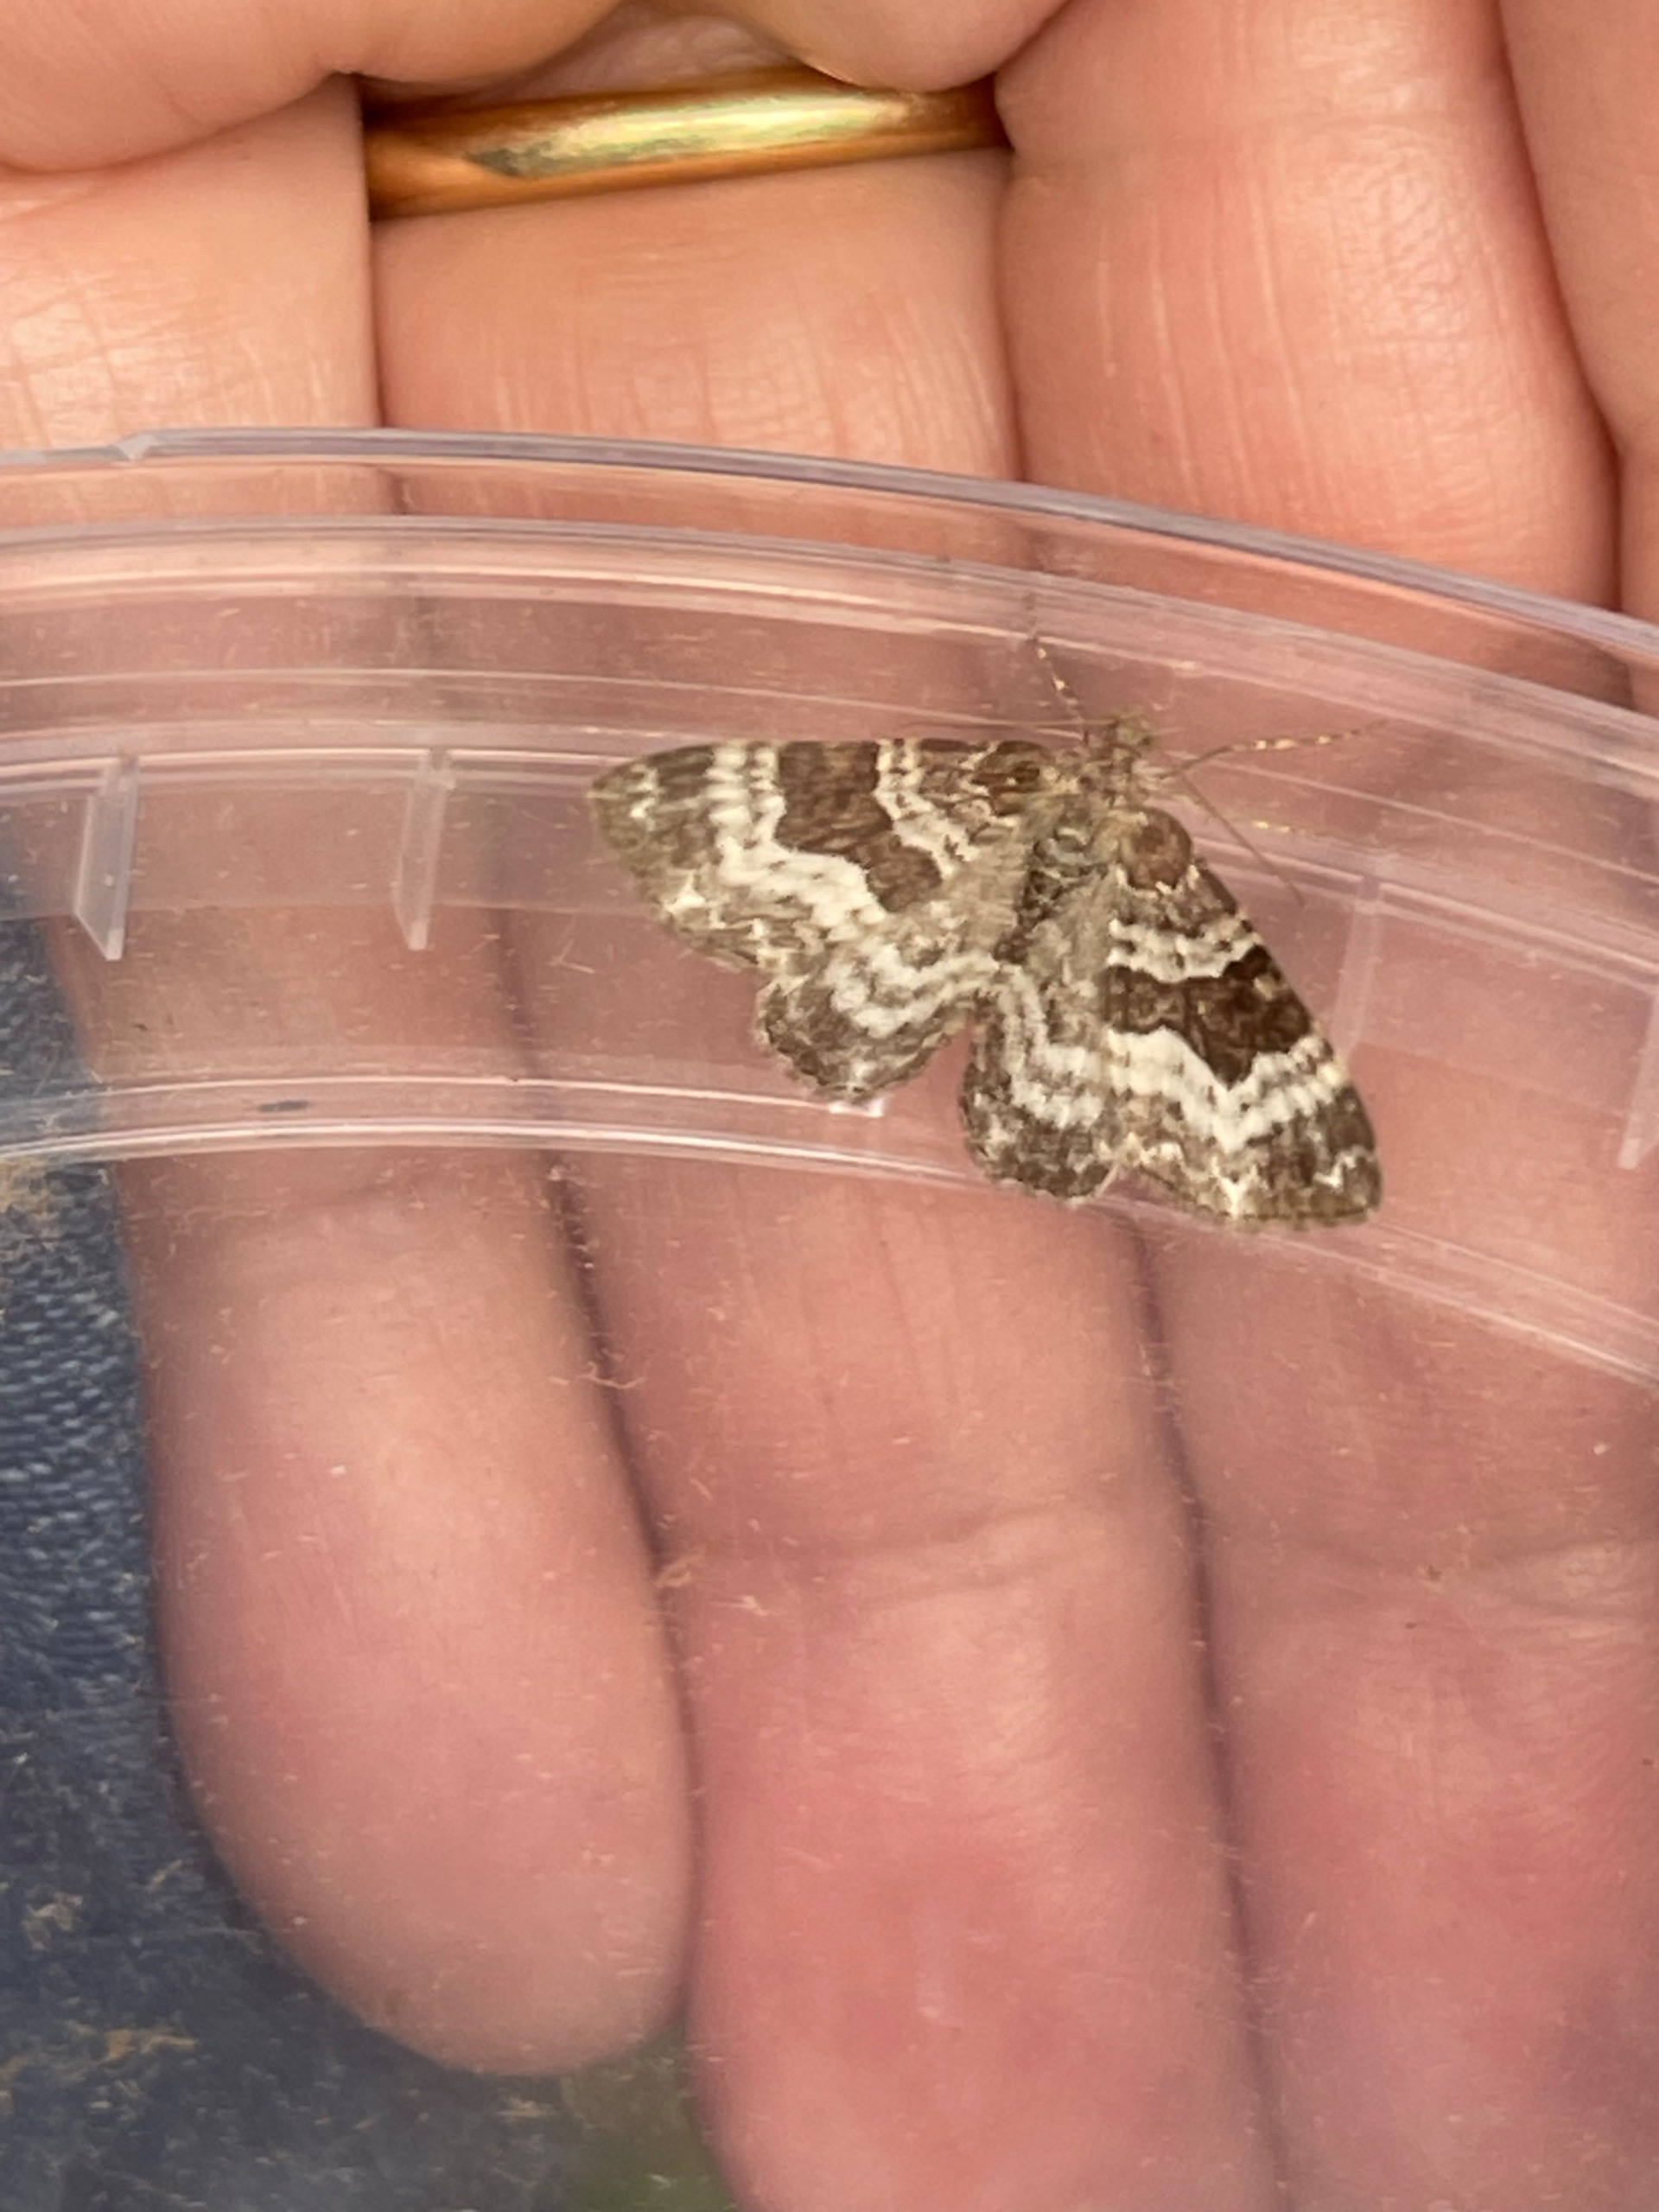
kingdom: Animalia
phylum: Arthropoda
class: Insecta
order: Lepidoptera
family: Geometridae
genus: Epirrhoe
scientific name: Epirrhoe alternata
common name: Almindelig bladmåler
